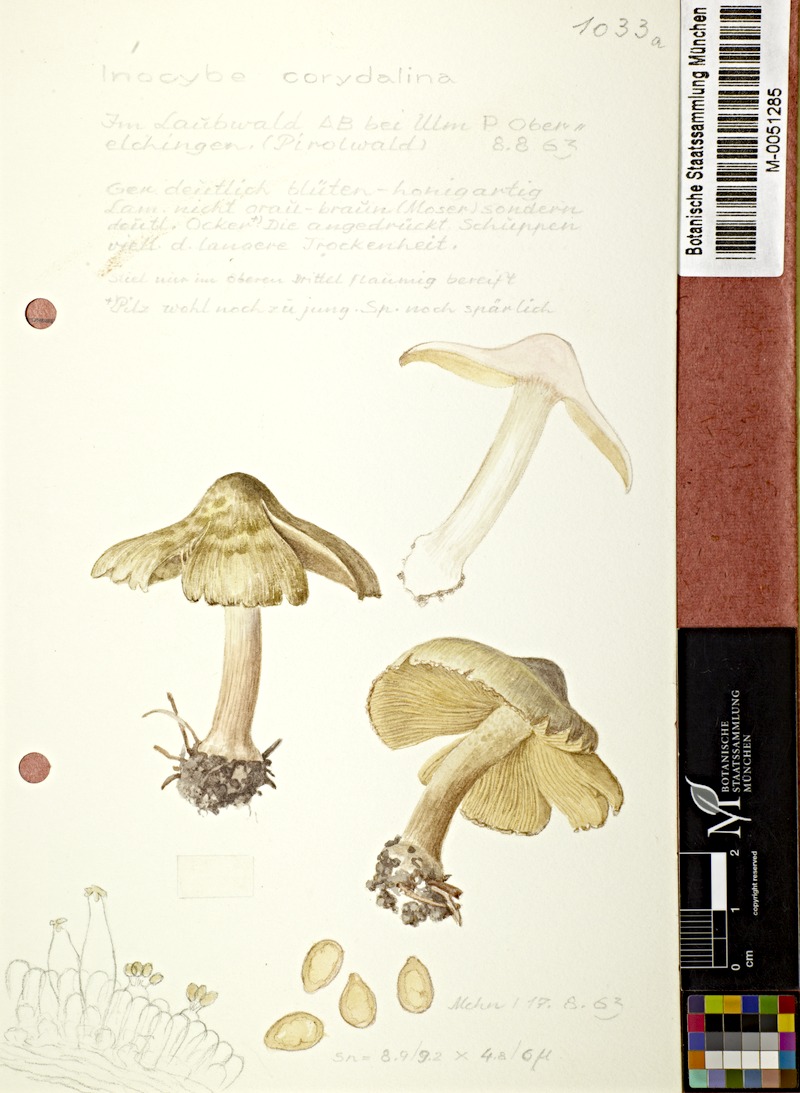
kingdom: Fungi
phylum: Basidiomycota
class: Agaricomycetes
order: Agaricales
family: Inocybaceae
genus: Inocybe
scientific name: Inocybe fraudans
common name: Pear fibrecap
